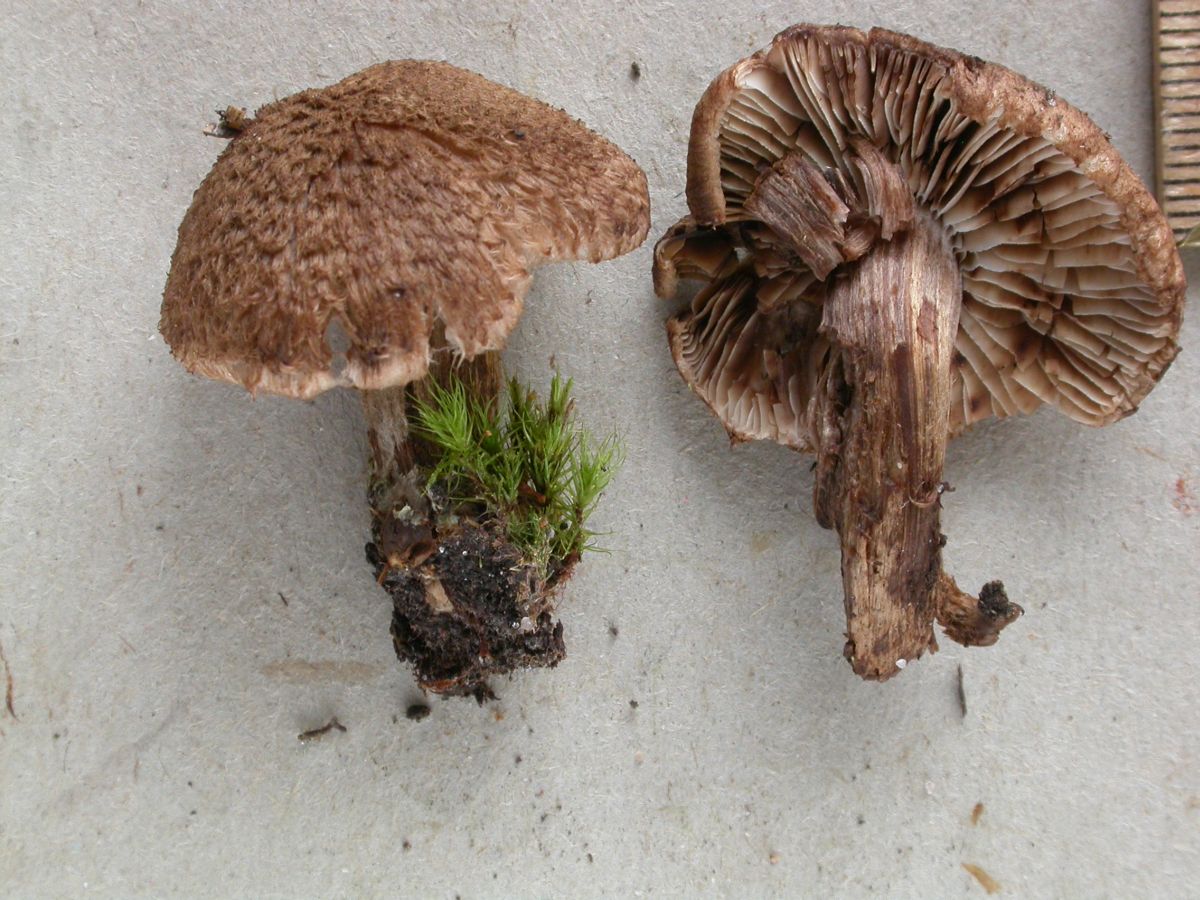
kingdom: Fungi
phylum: Basidiomycota
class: Agaricomycetes
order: Agaricales
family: Inocybaceae
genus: Inocybe
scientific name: Inocybe stellatospora
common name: spidsskællet trævlhat
